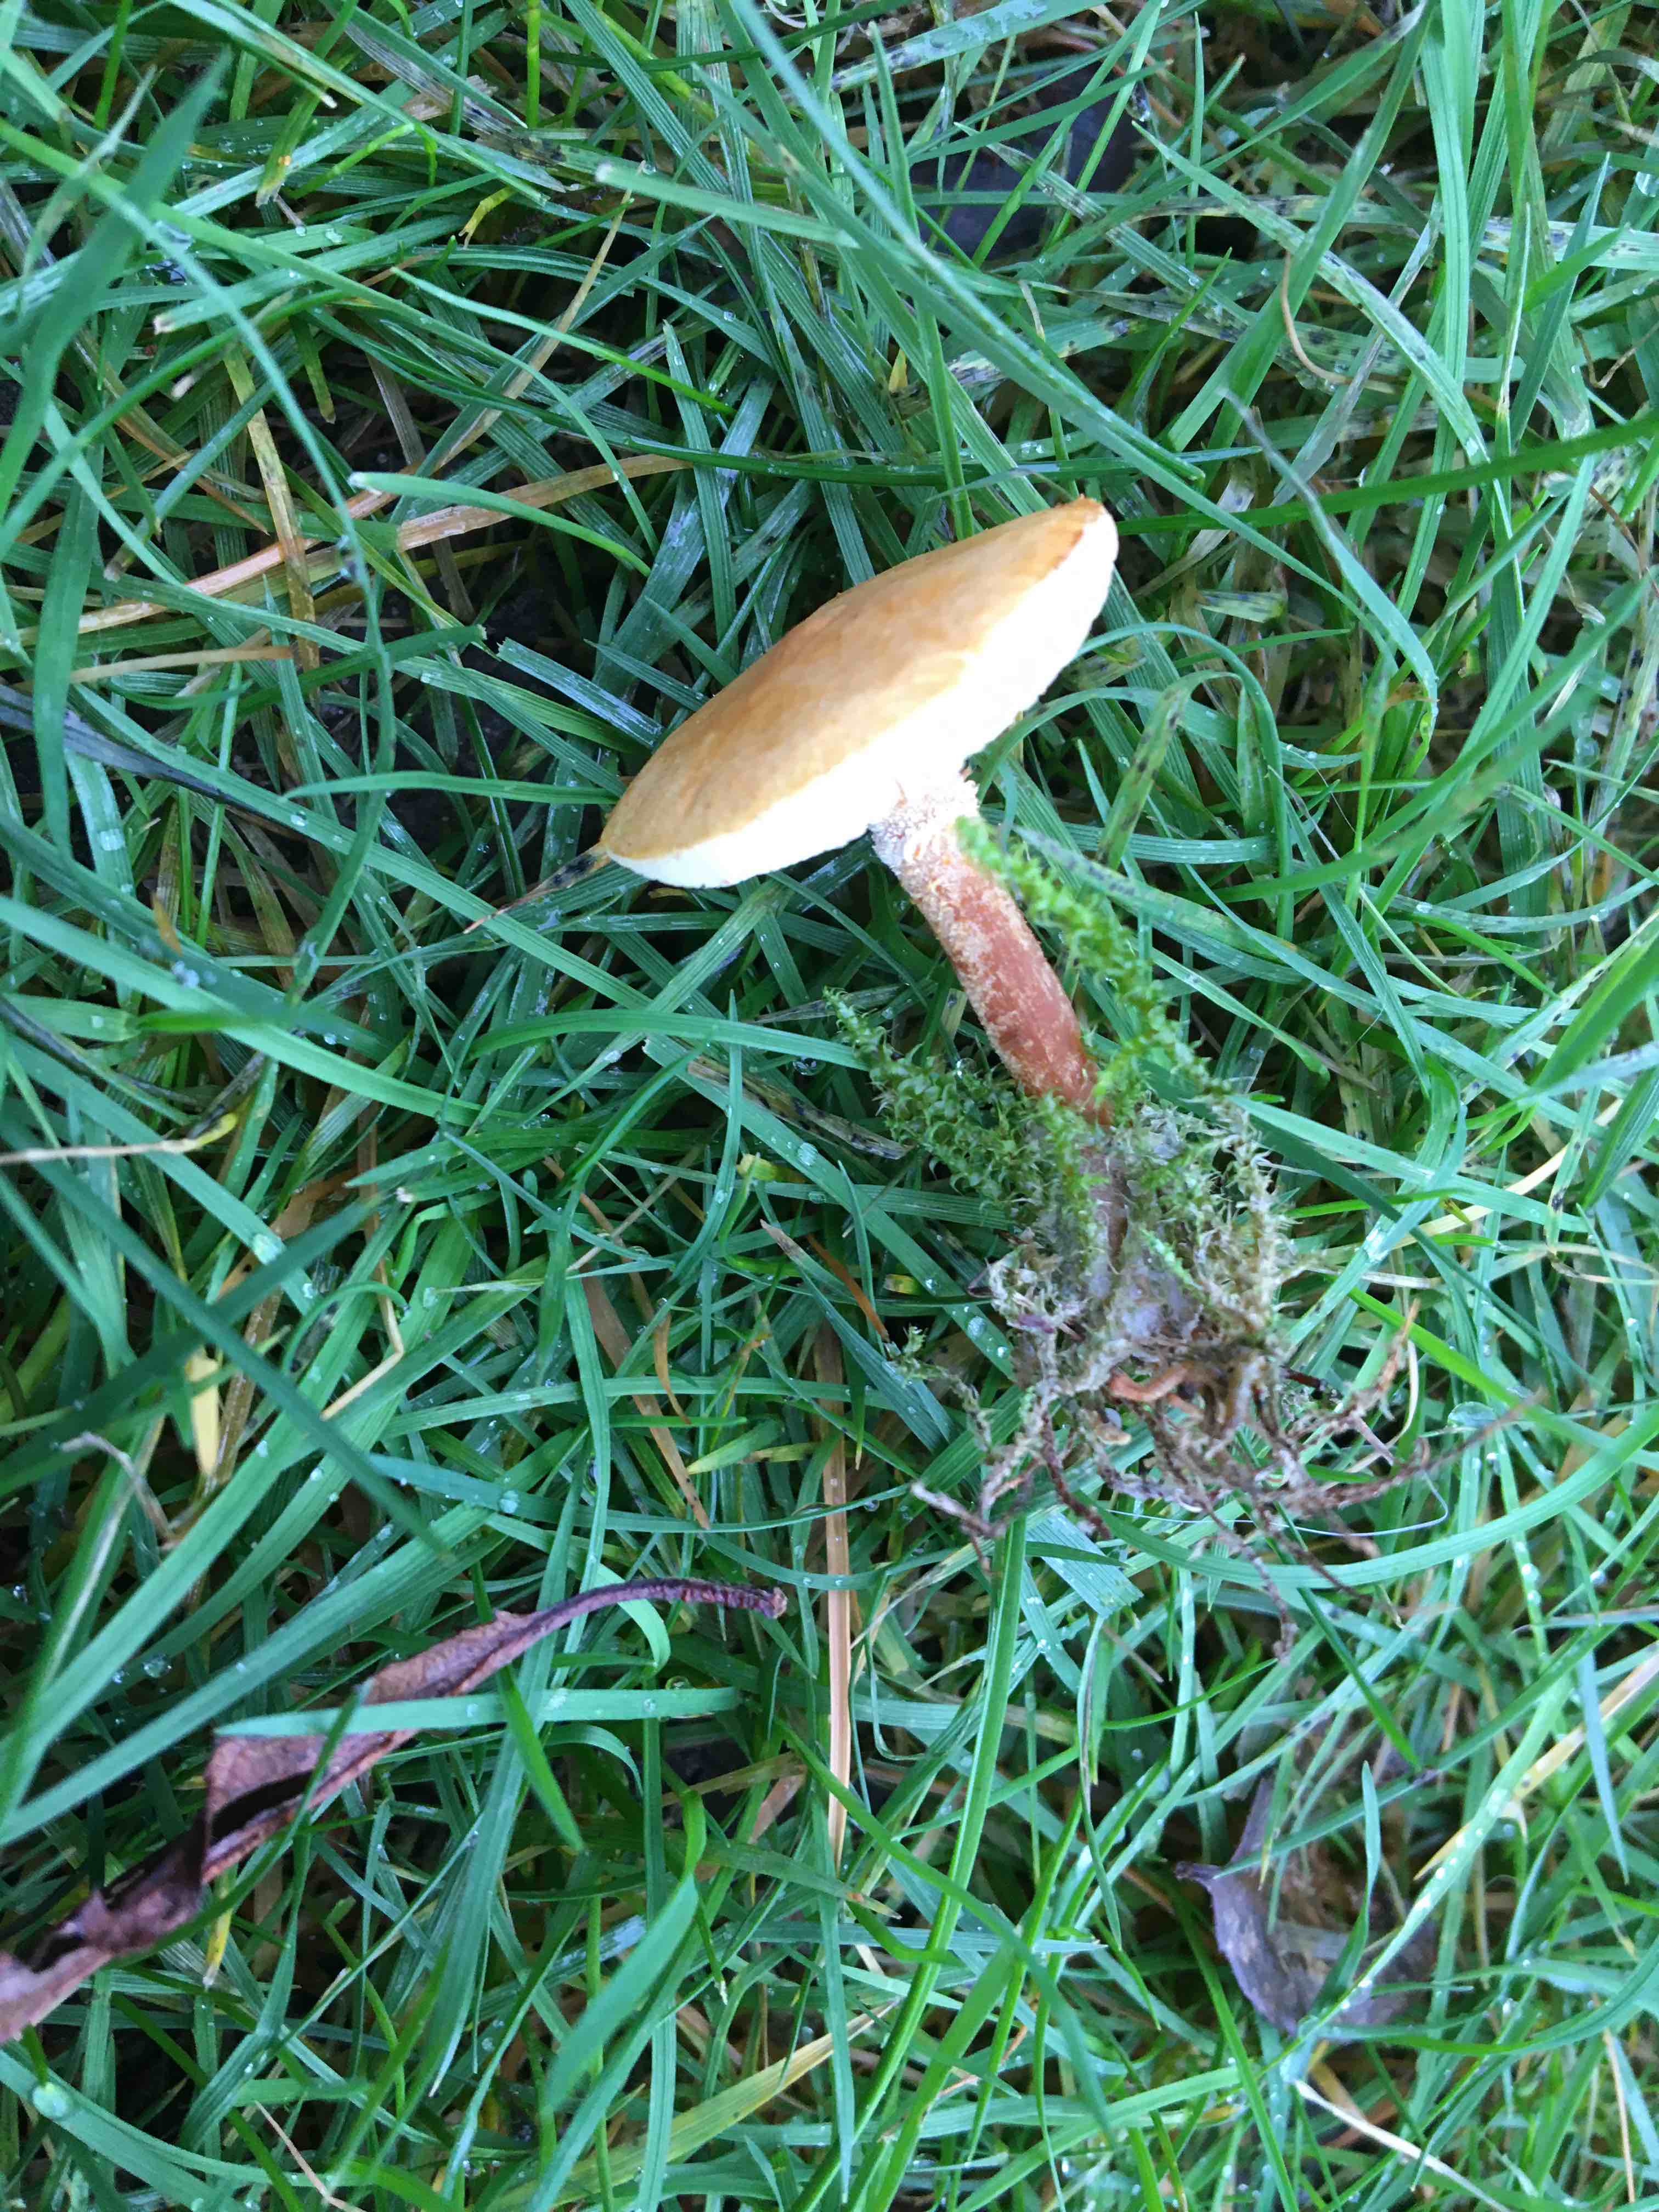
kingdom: Fungi
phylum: Basidiomycota
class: Agaricomycetes
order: Agaricales
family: Tricholomataceae
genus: Cystoderma
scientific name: Cystoderma amianthinum
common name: okkergul grynhat
